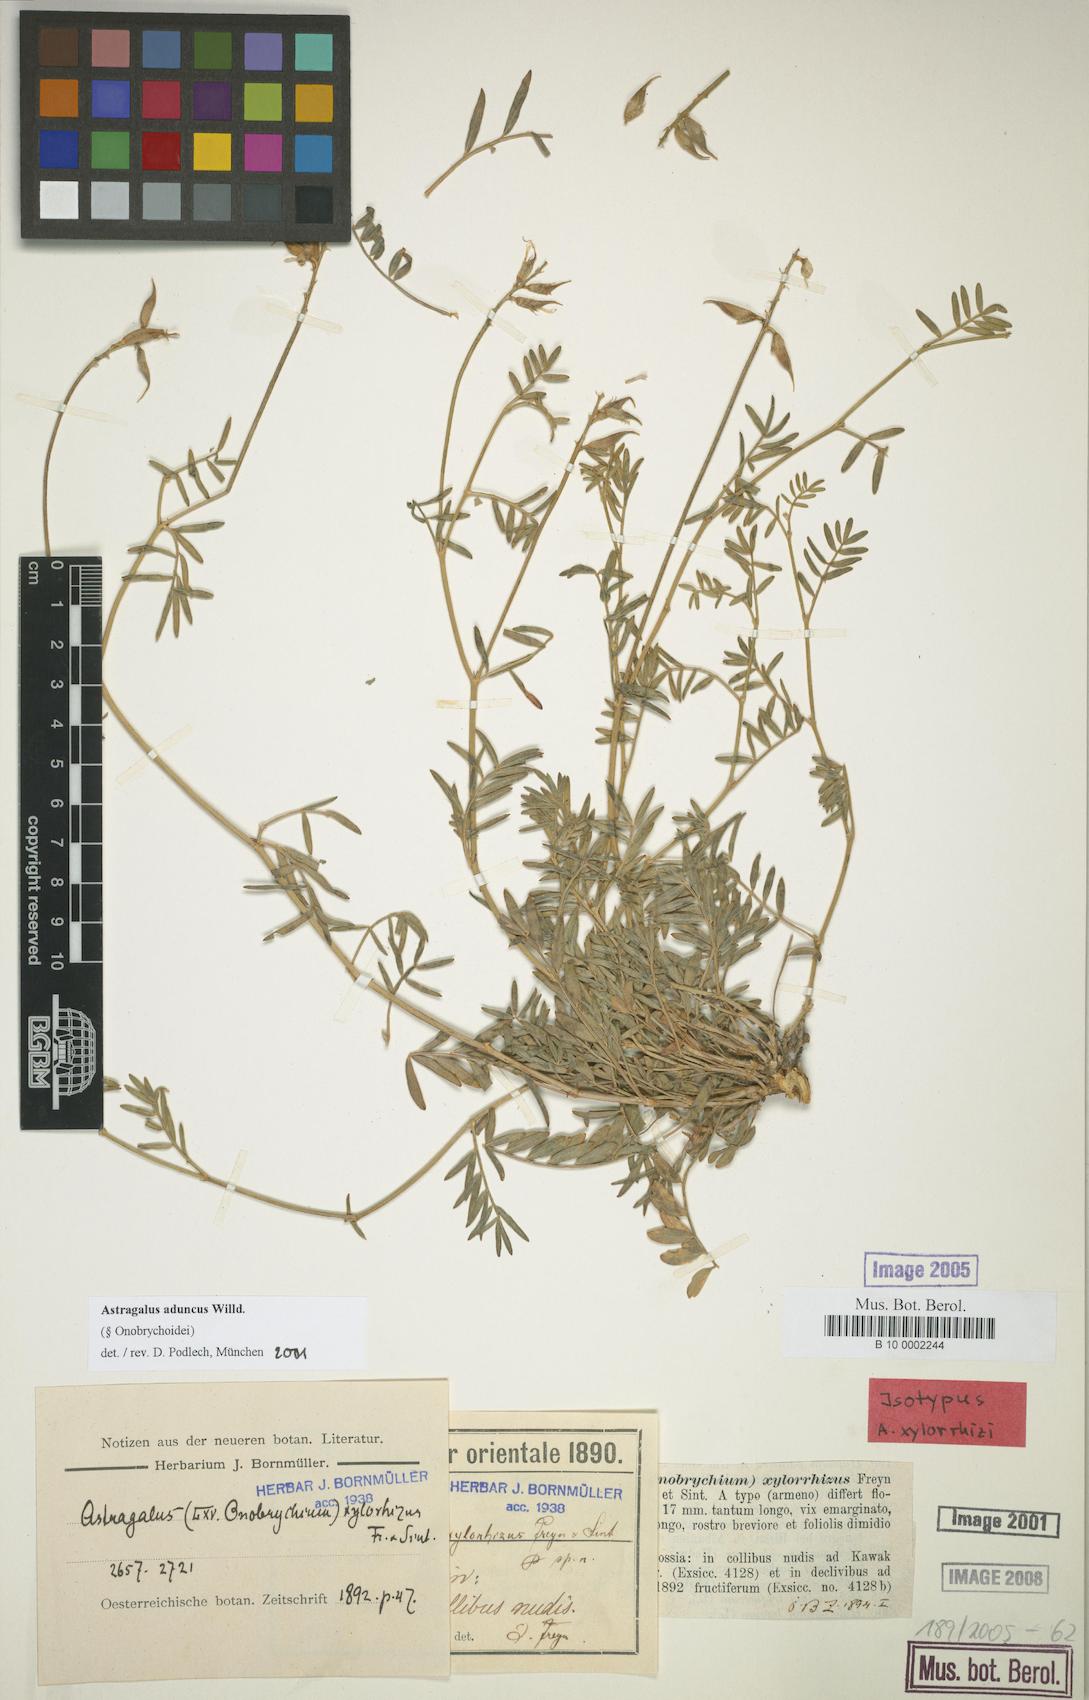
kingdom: Plantae
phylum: Tracheophyta
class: Magnoliopsida
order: Fabales
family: Fabaceae
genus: Astragalus
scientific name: Astragalus aduncus
